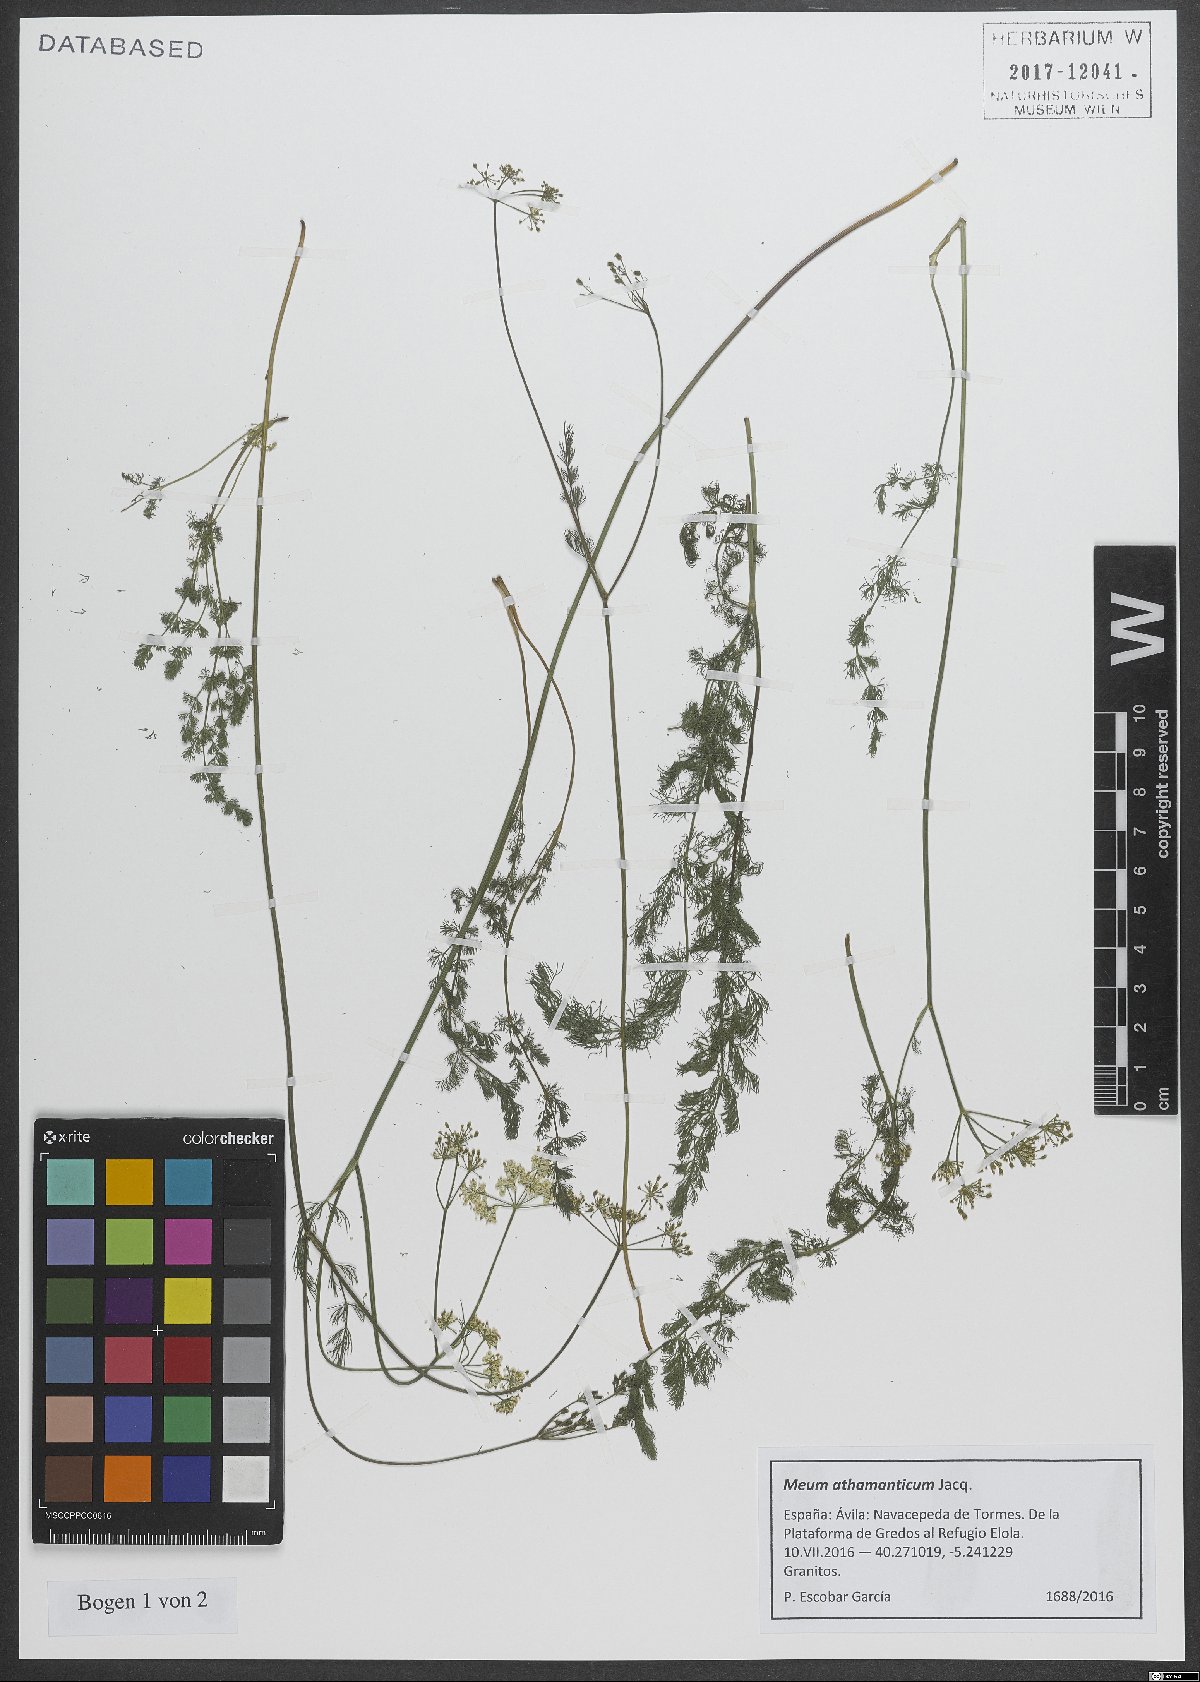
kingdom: Plantae
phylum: Tracheophyta
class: Magnoliopsida
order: Apiales
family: Apiaceae
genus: Meum
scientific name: Meum athamanticum
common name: Spignel
